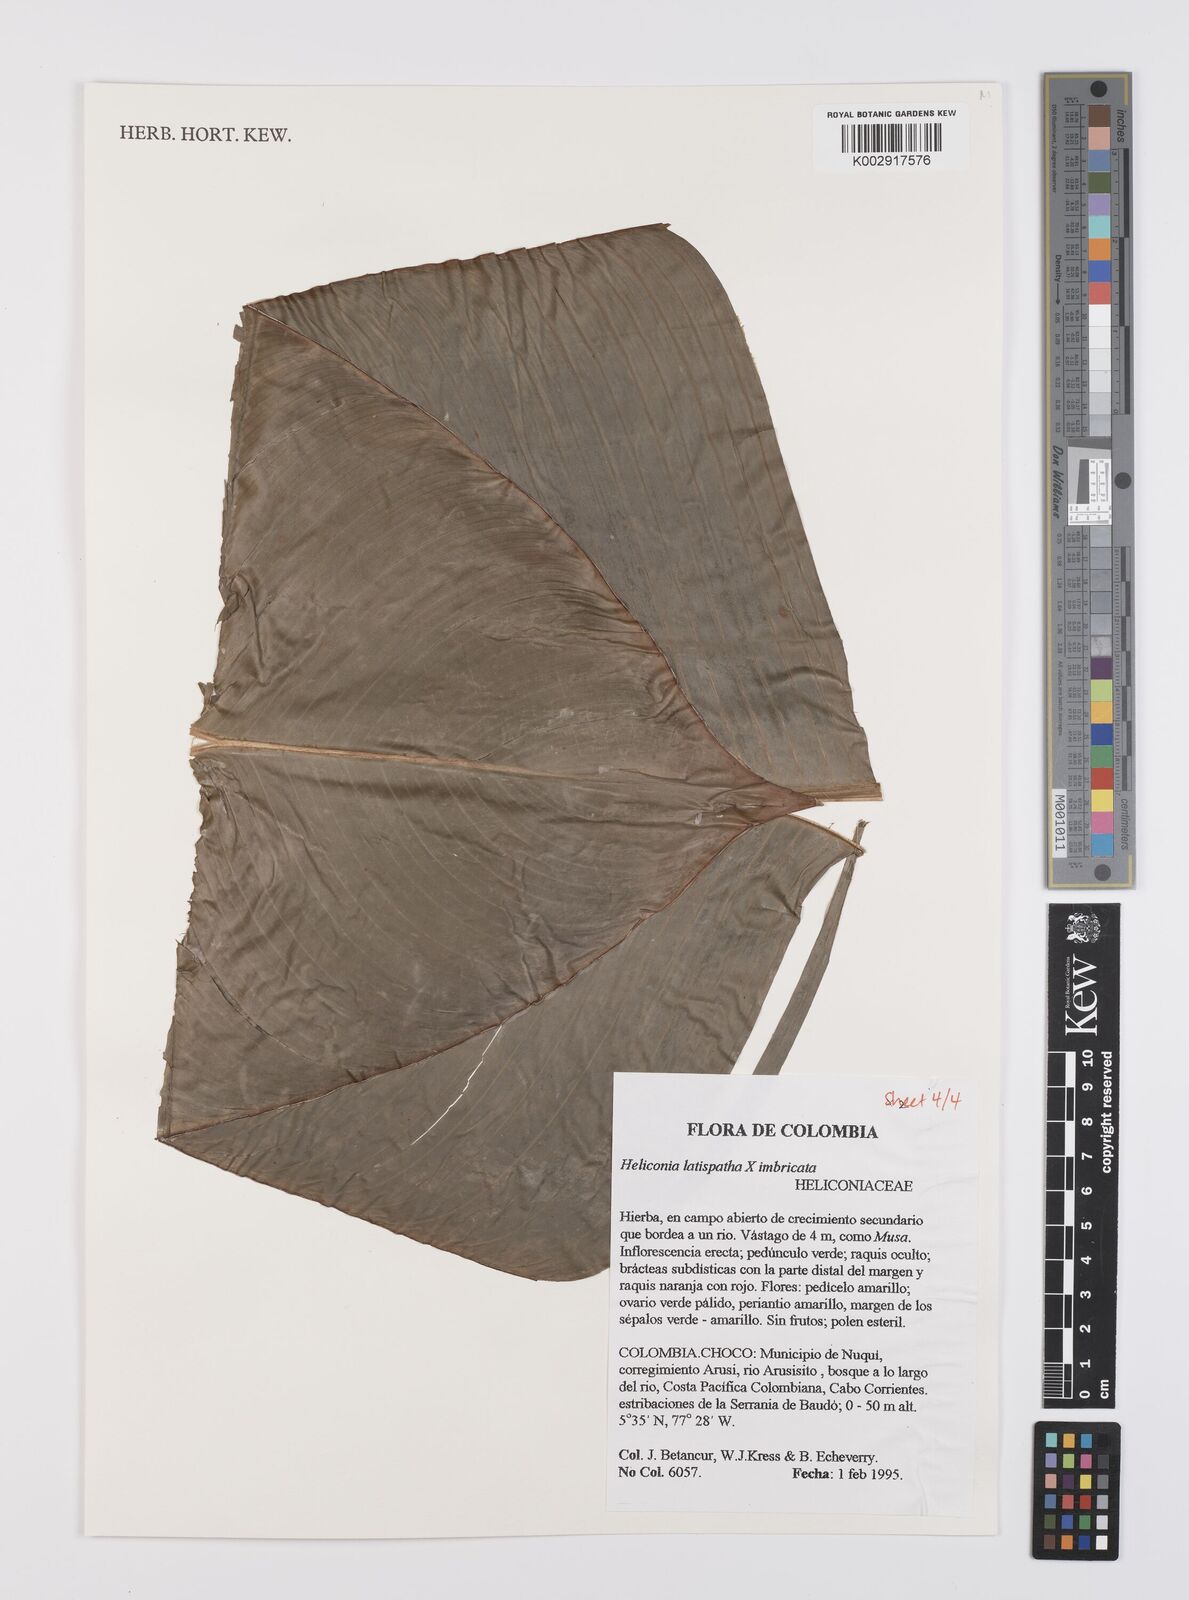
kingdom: Plantae
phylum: Tracheophyta
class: Liliopsida
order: Zingiberales
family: Heliconiaceae
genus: Heliconia
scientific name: Heliconia latispatha
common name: Expanded lobsterclaw
